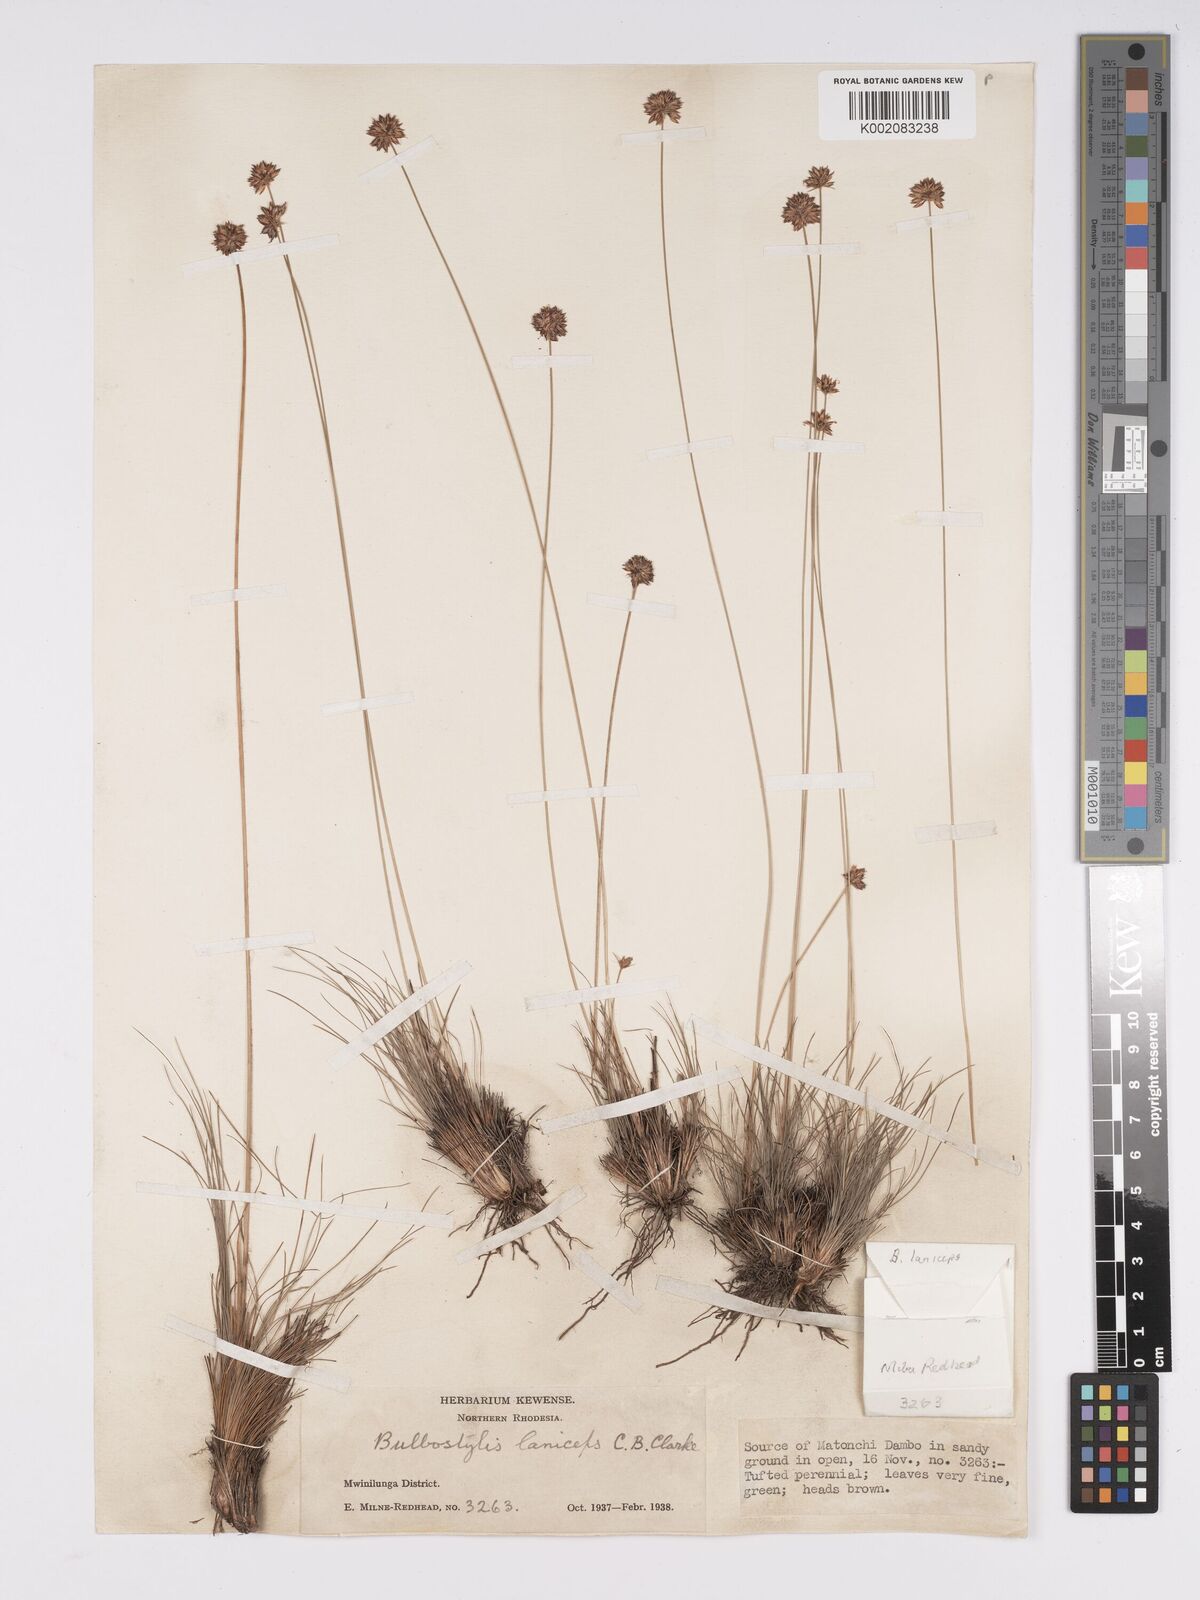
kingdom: Plantae
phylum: Tracheophyta
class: Liliopsida
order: Poales
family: Cyperaceae
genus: Bulbostylis
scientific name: Bulbostylis laniceps
